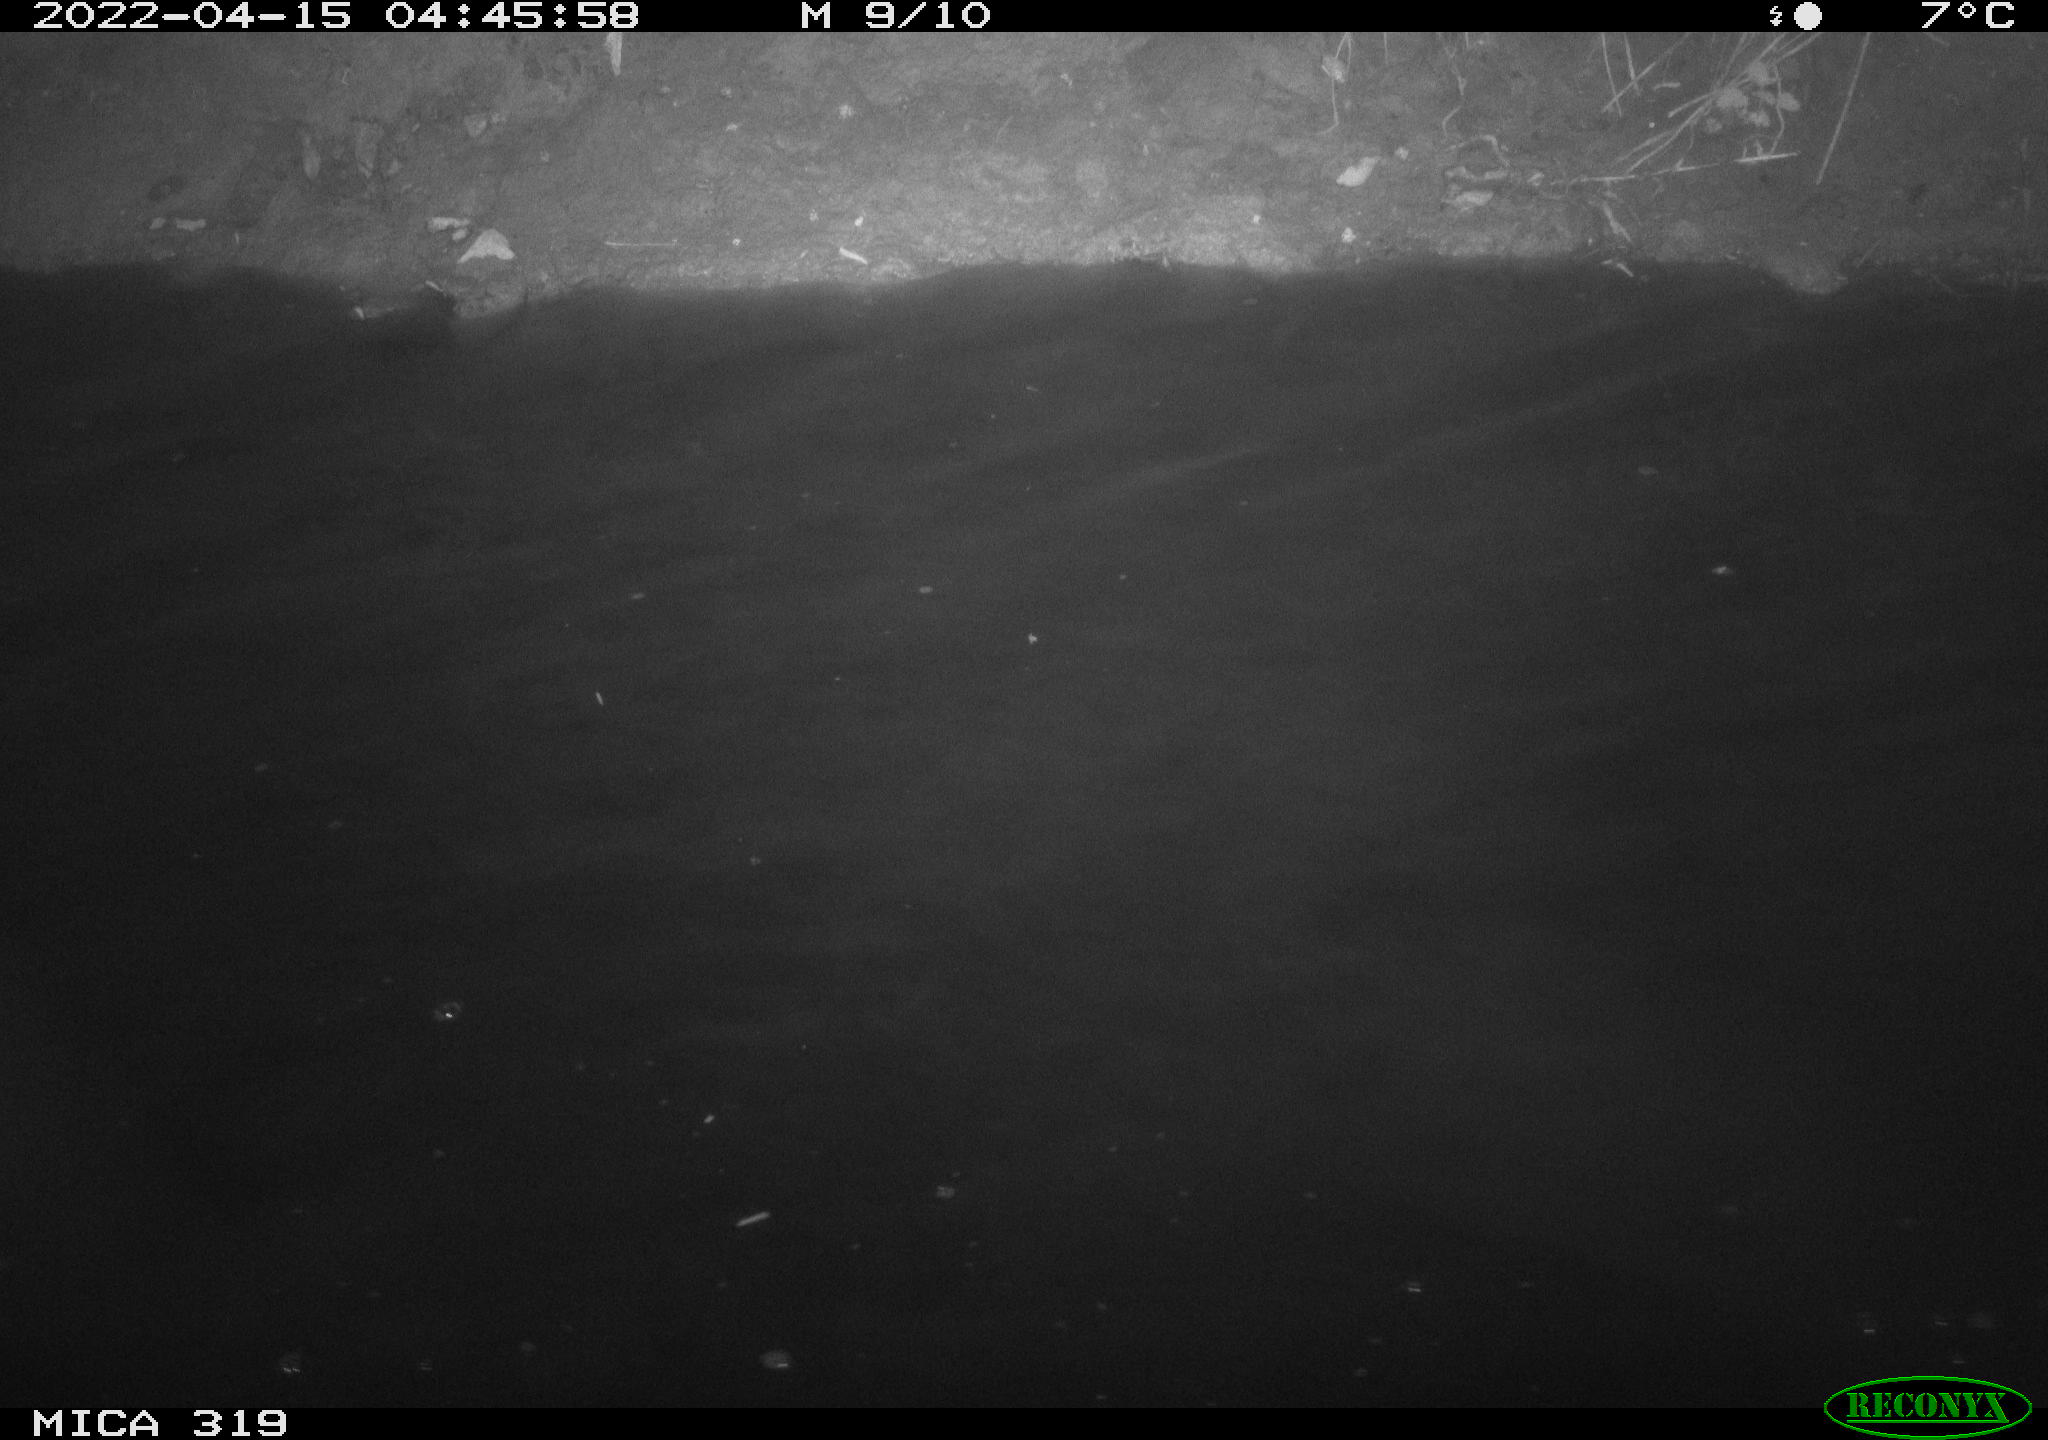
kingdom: Animalia
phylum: Chordata
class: Aves
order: Anseriformes
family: Anatidae
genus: Anas
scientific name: Anas platyrhynchos
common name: Mallard
